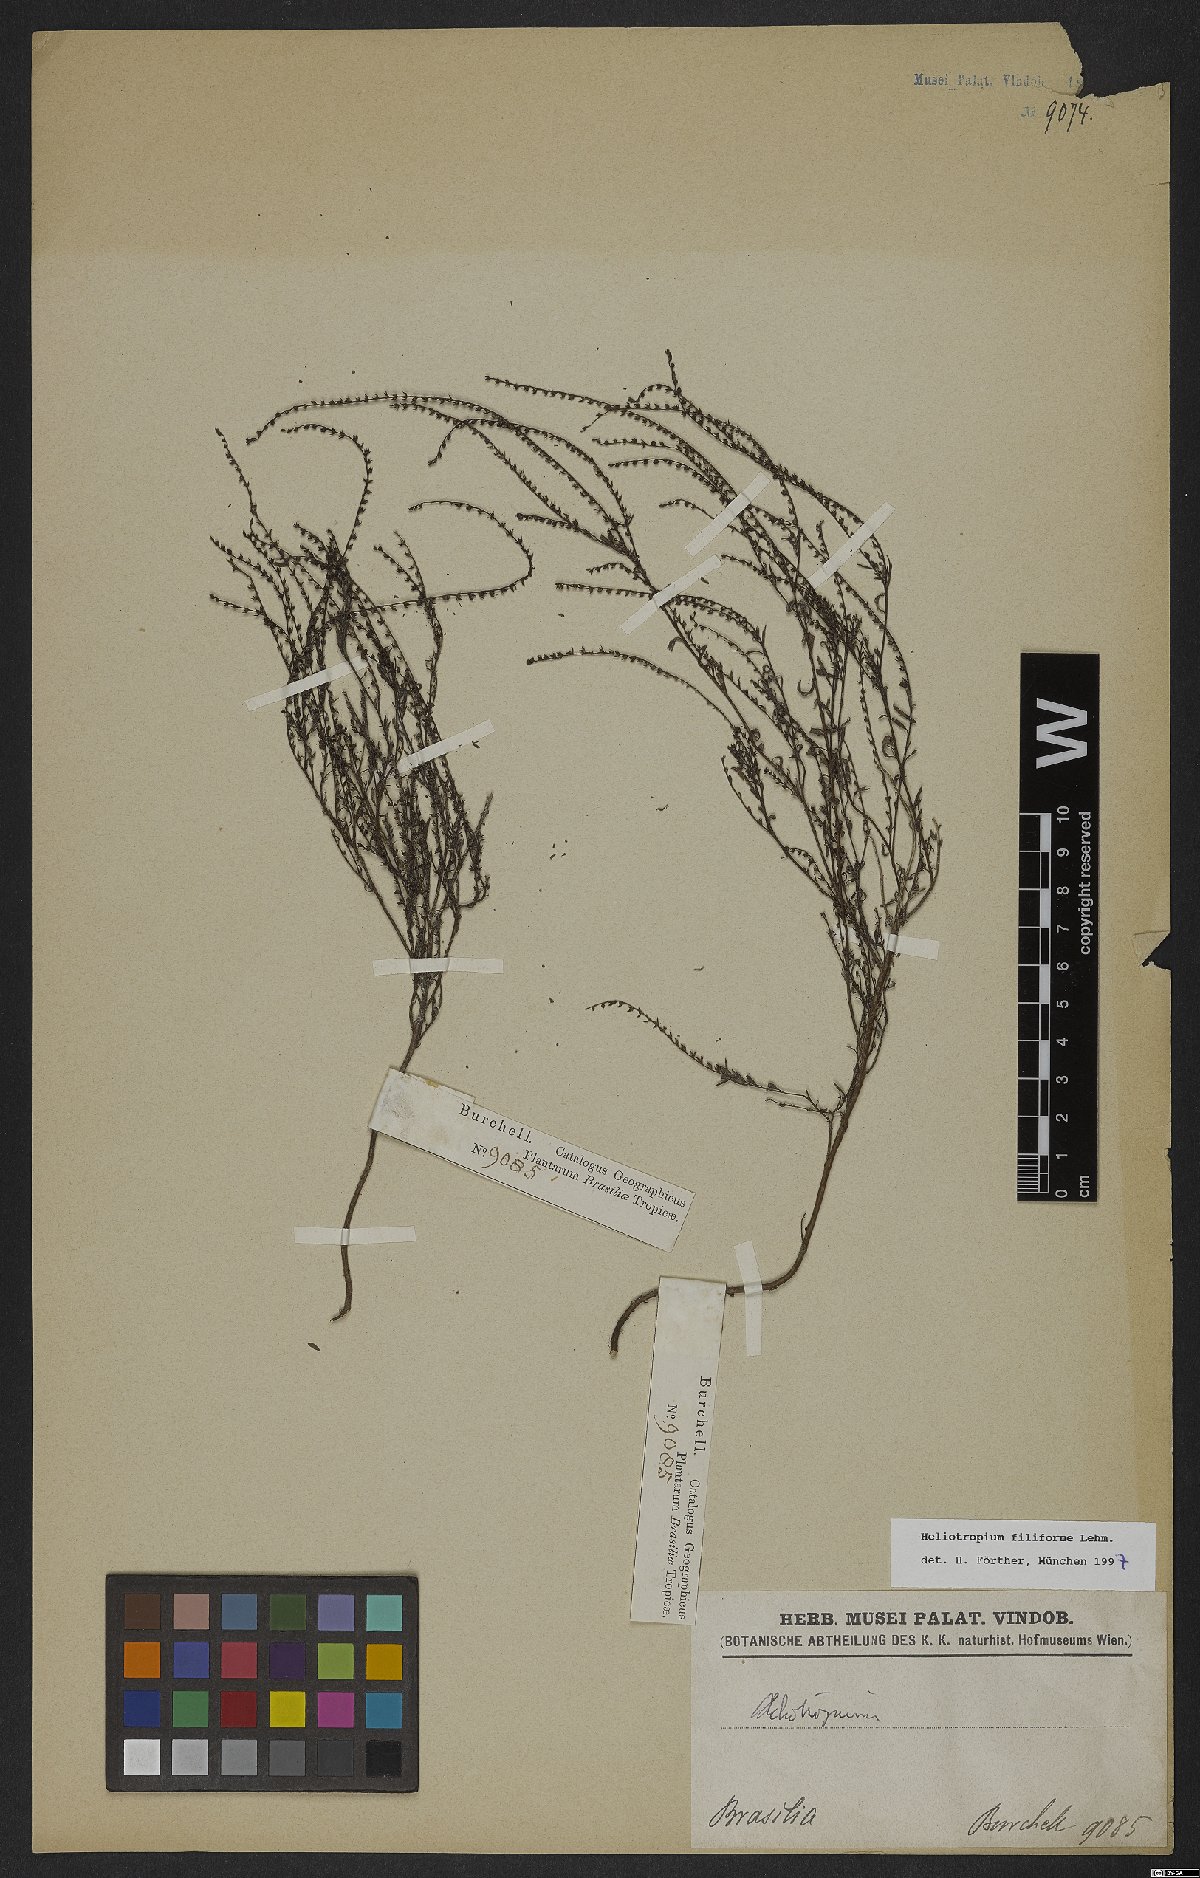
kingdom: Plantae
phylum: Tracheophyta
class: Magnoliopsida
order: Boraginales
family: Heliotropiaceae
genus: Euploca
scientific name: Euploca filiformis
